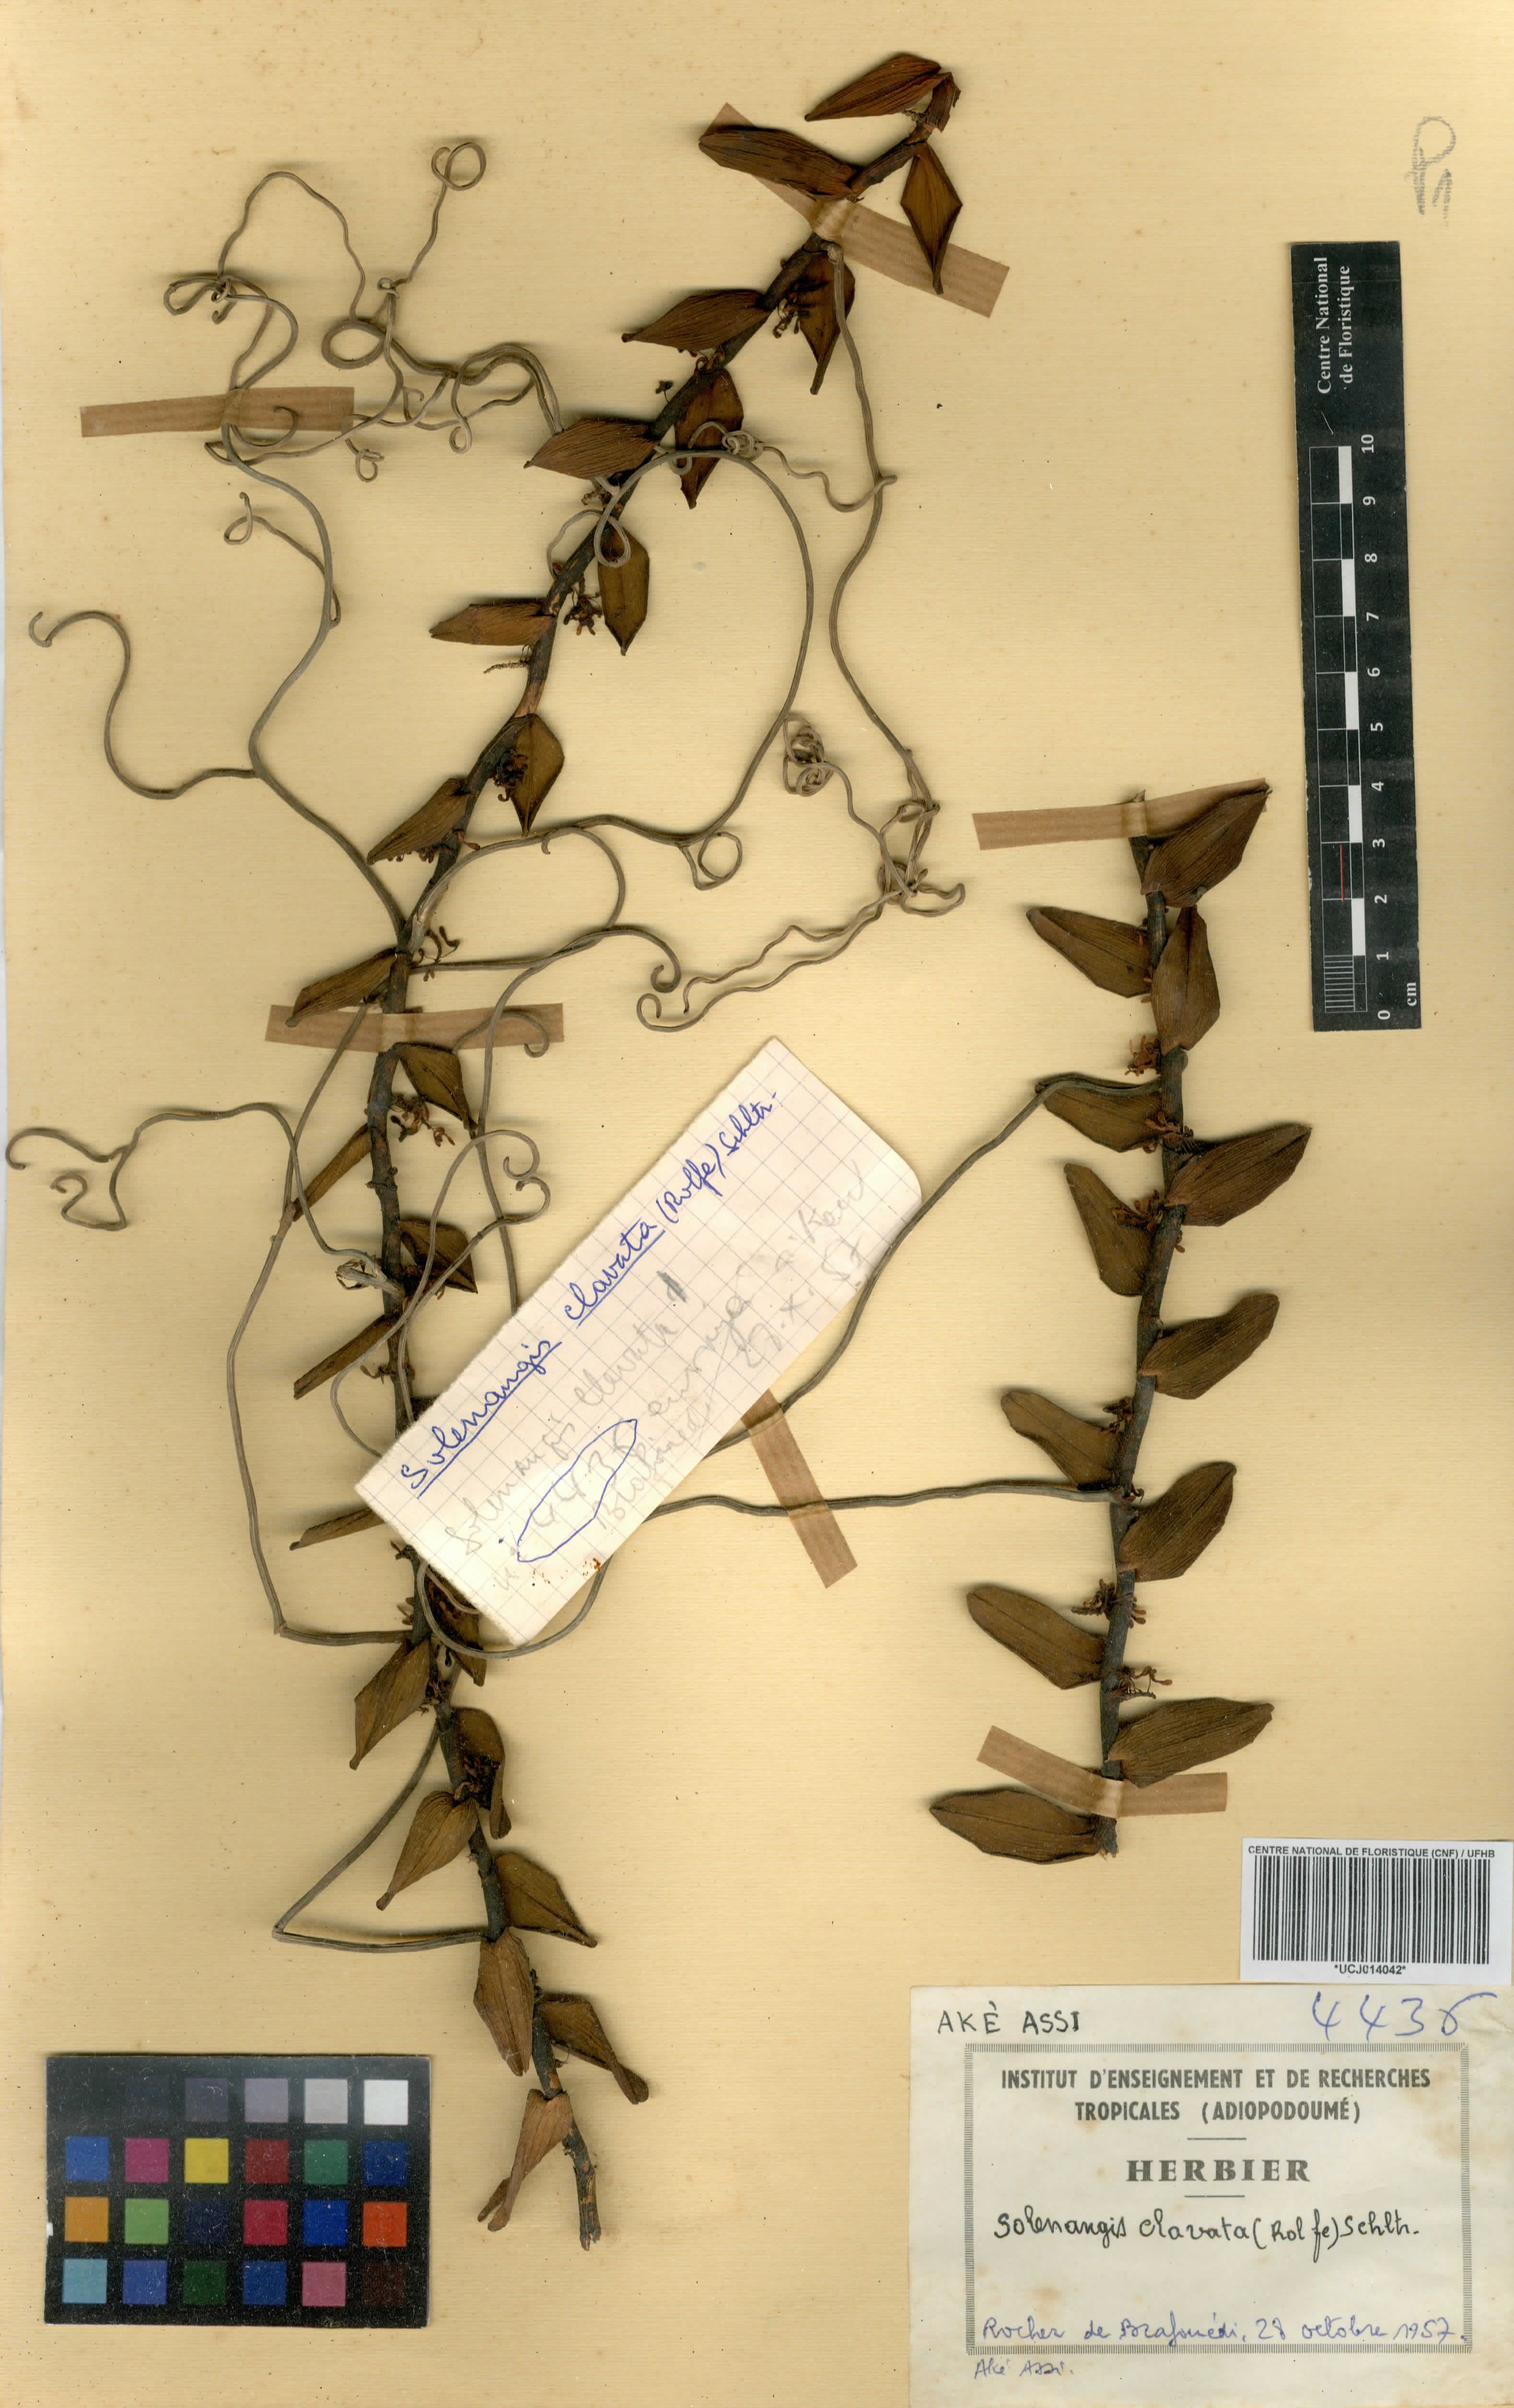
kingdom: Plantae
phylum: Tracheophyta
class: Liliopsida
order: Asparagales
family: Orchidaceae
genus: Solenangis
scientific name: Solenangis clavata
